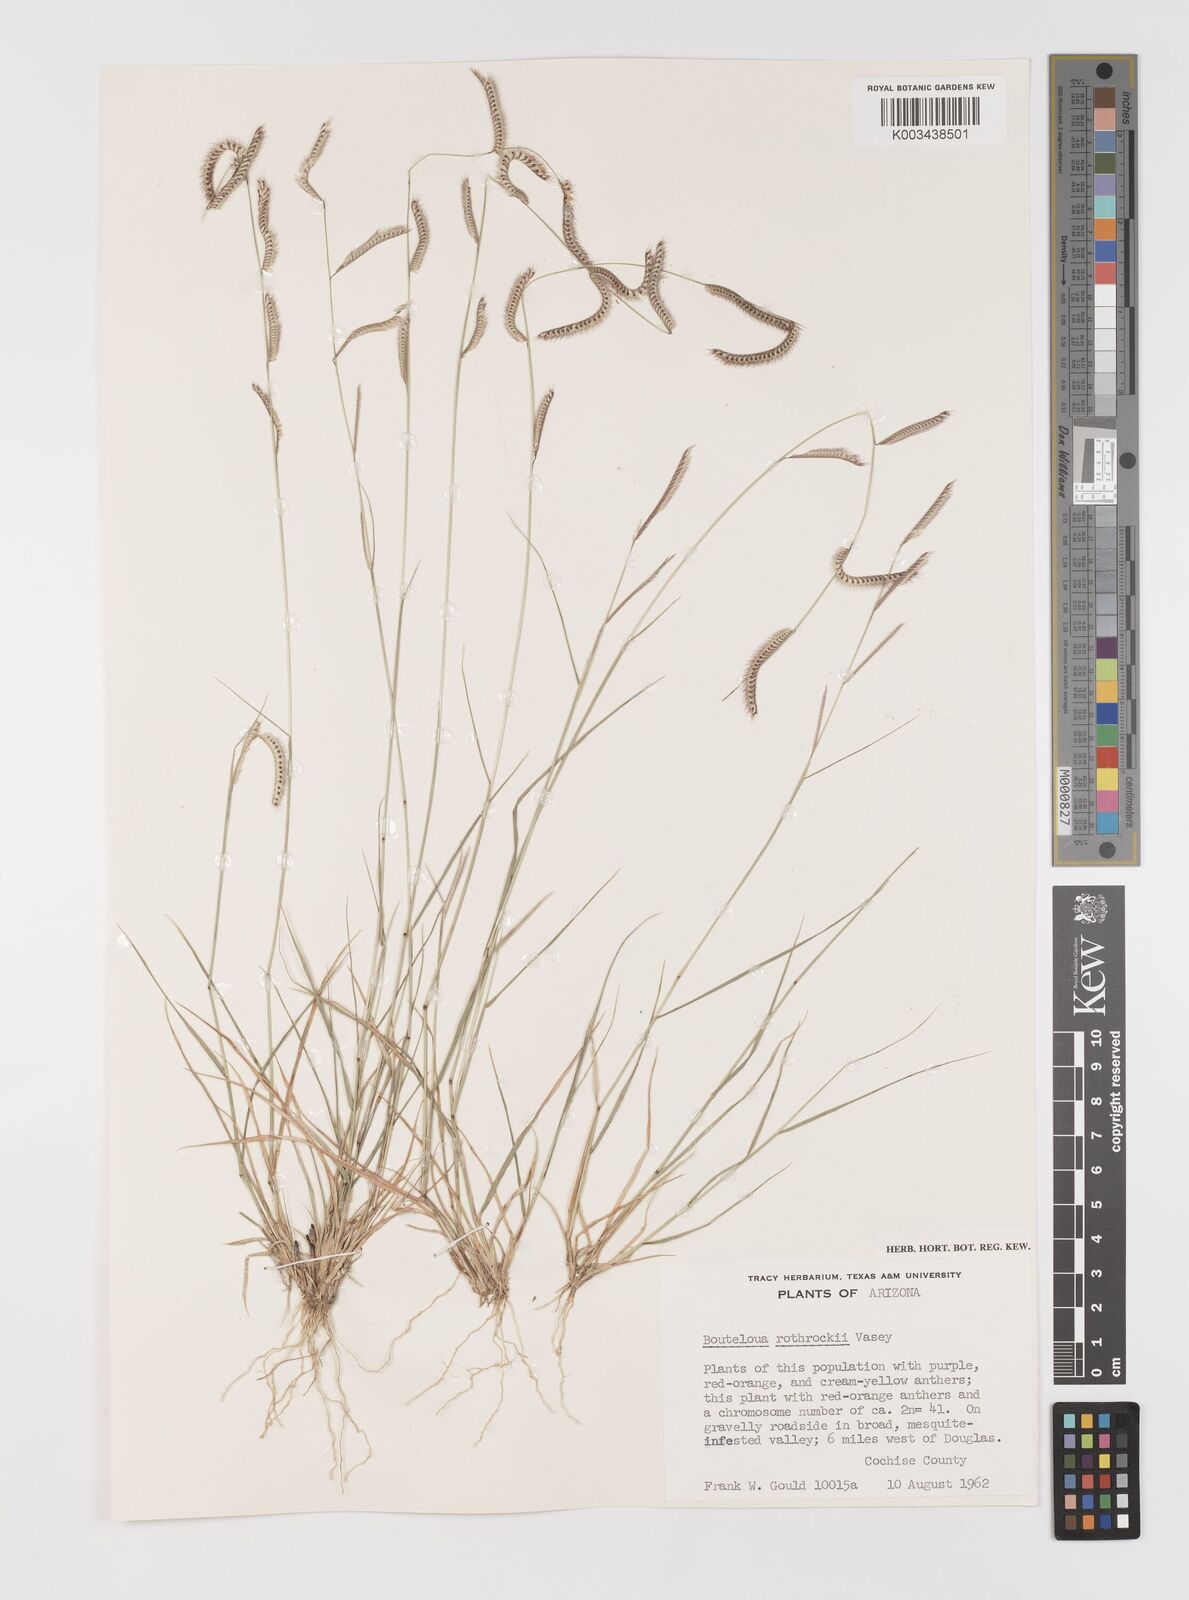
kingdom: Plantae
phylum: Tracheophyta
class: Liliopsida
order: Poales
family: Poaceae
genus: Bouteloua
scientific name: Bouteloua
